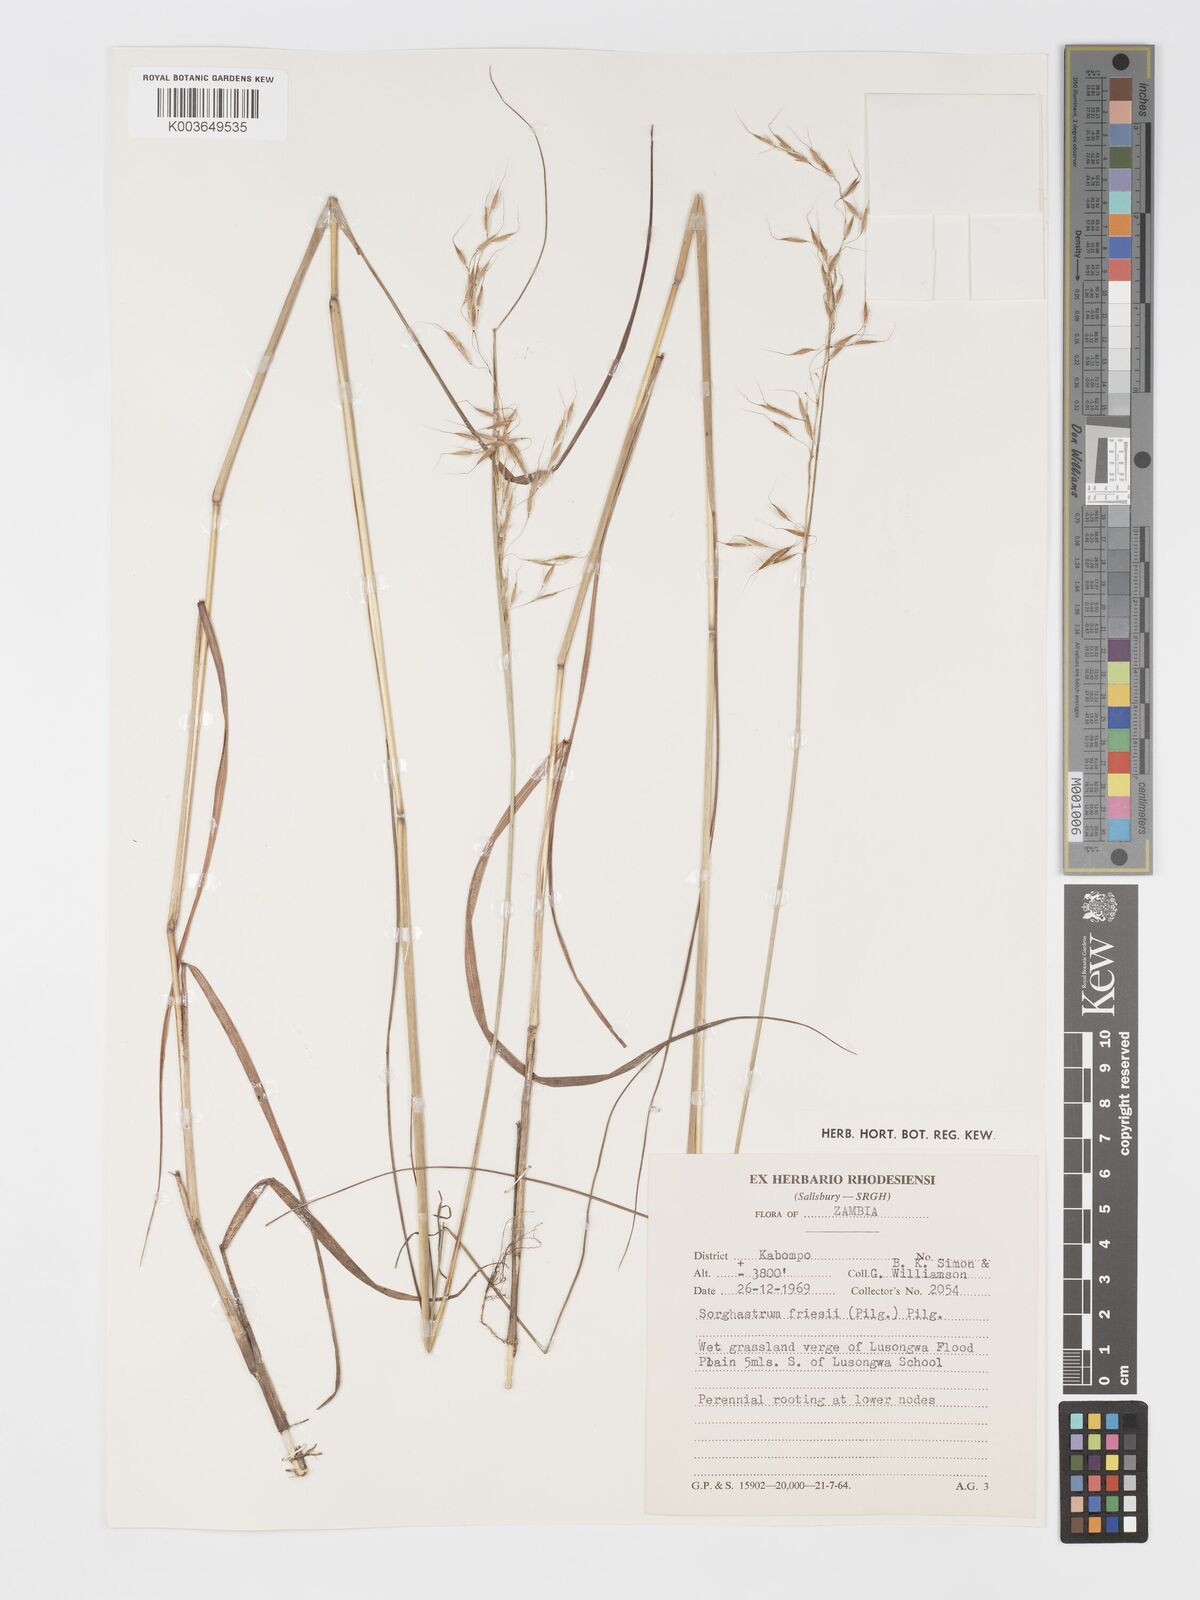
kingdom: Plantae
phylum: Tracheophyta
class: Liliopsida
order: Poales
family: Poaceae
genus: Sorghastrum
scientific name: Sorghastrum nudipes
